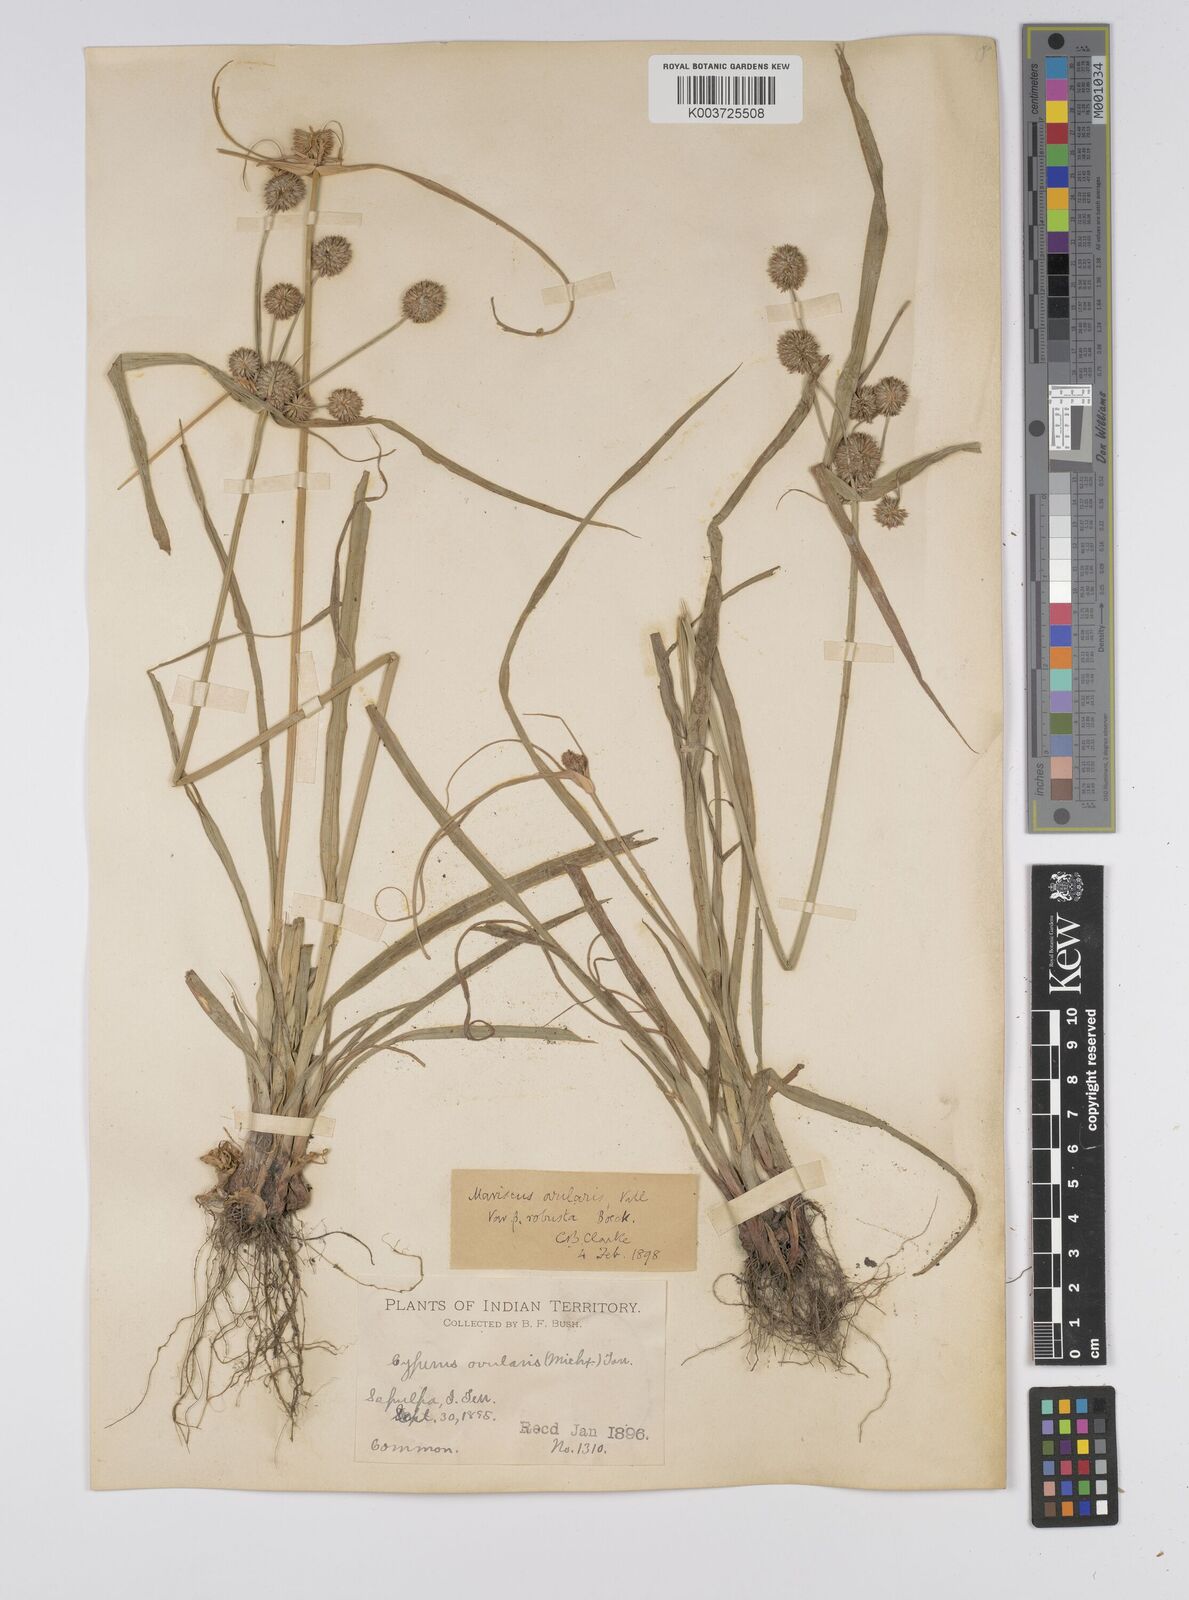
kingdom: Plantae
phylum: Tracheophyta
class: Liliopsida
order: Poales
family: Cyperaceae
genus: Cyperus
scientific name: Cyperus echinatus
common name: Teasel sedge
